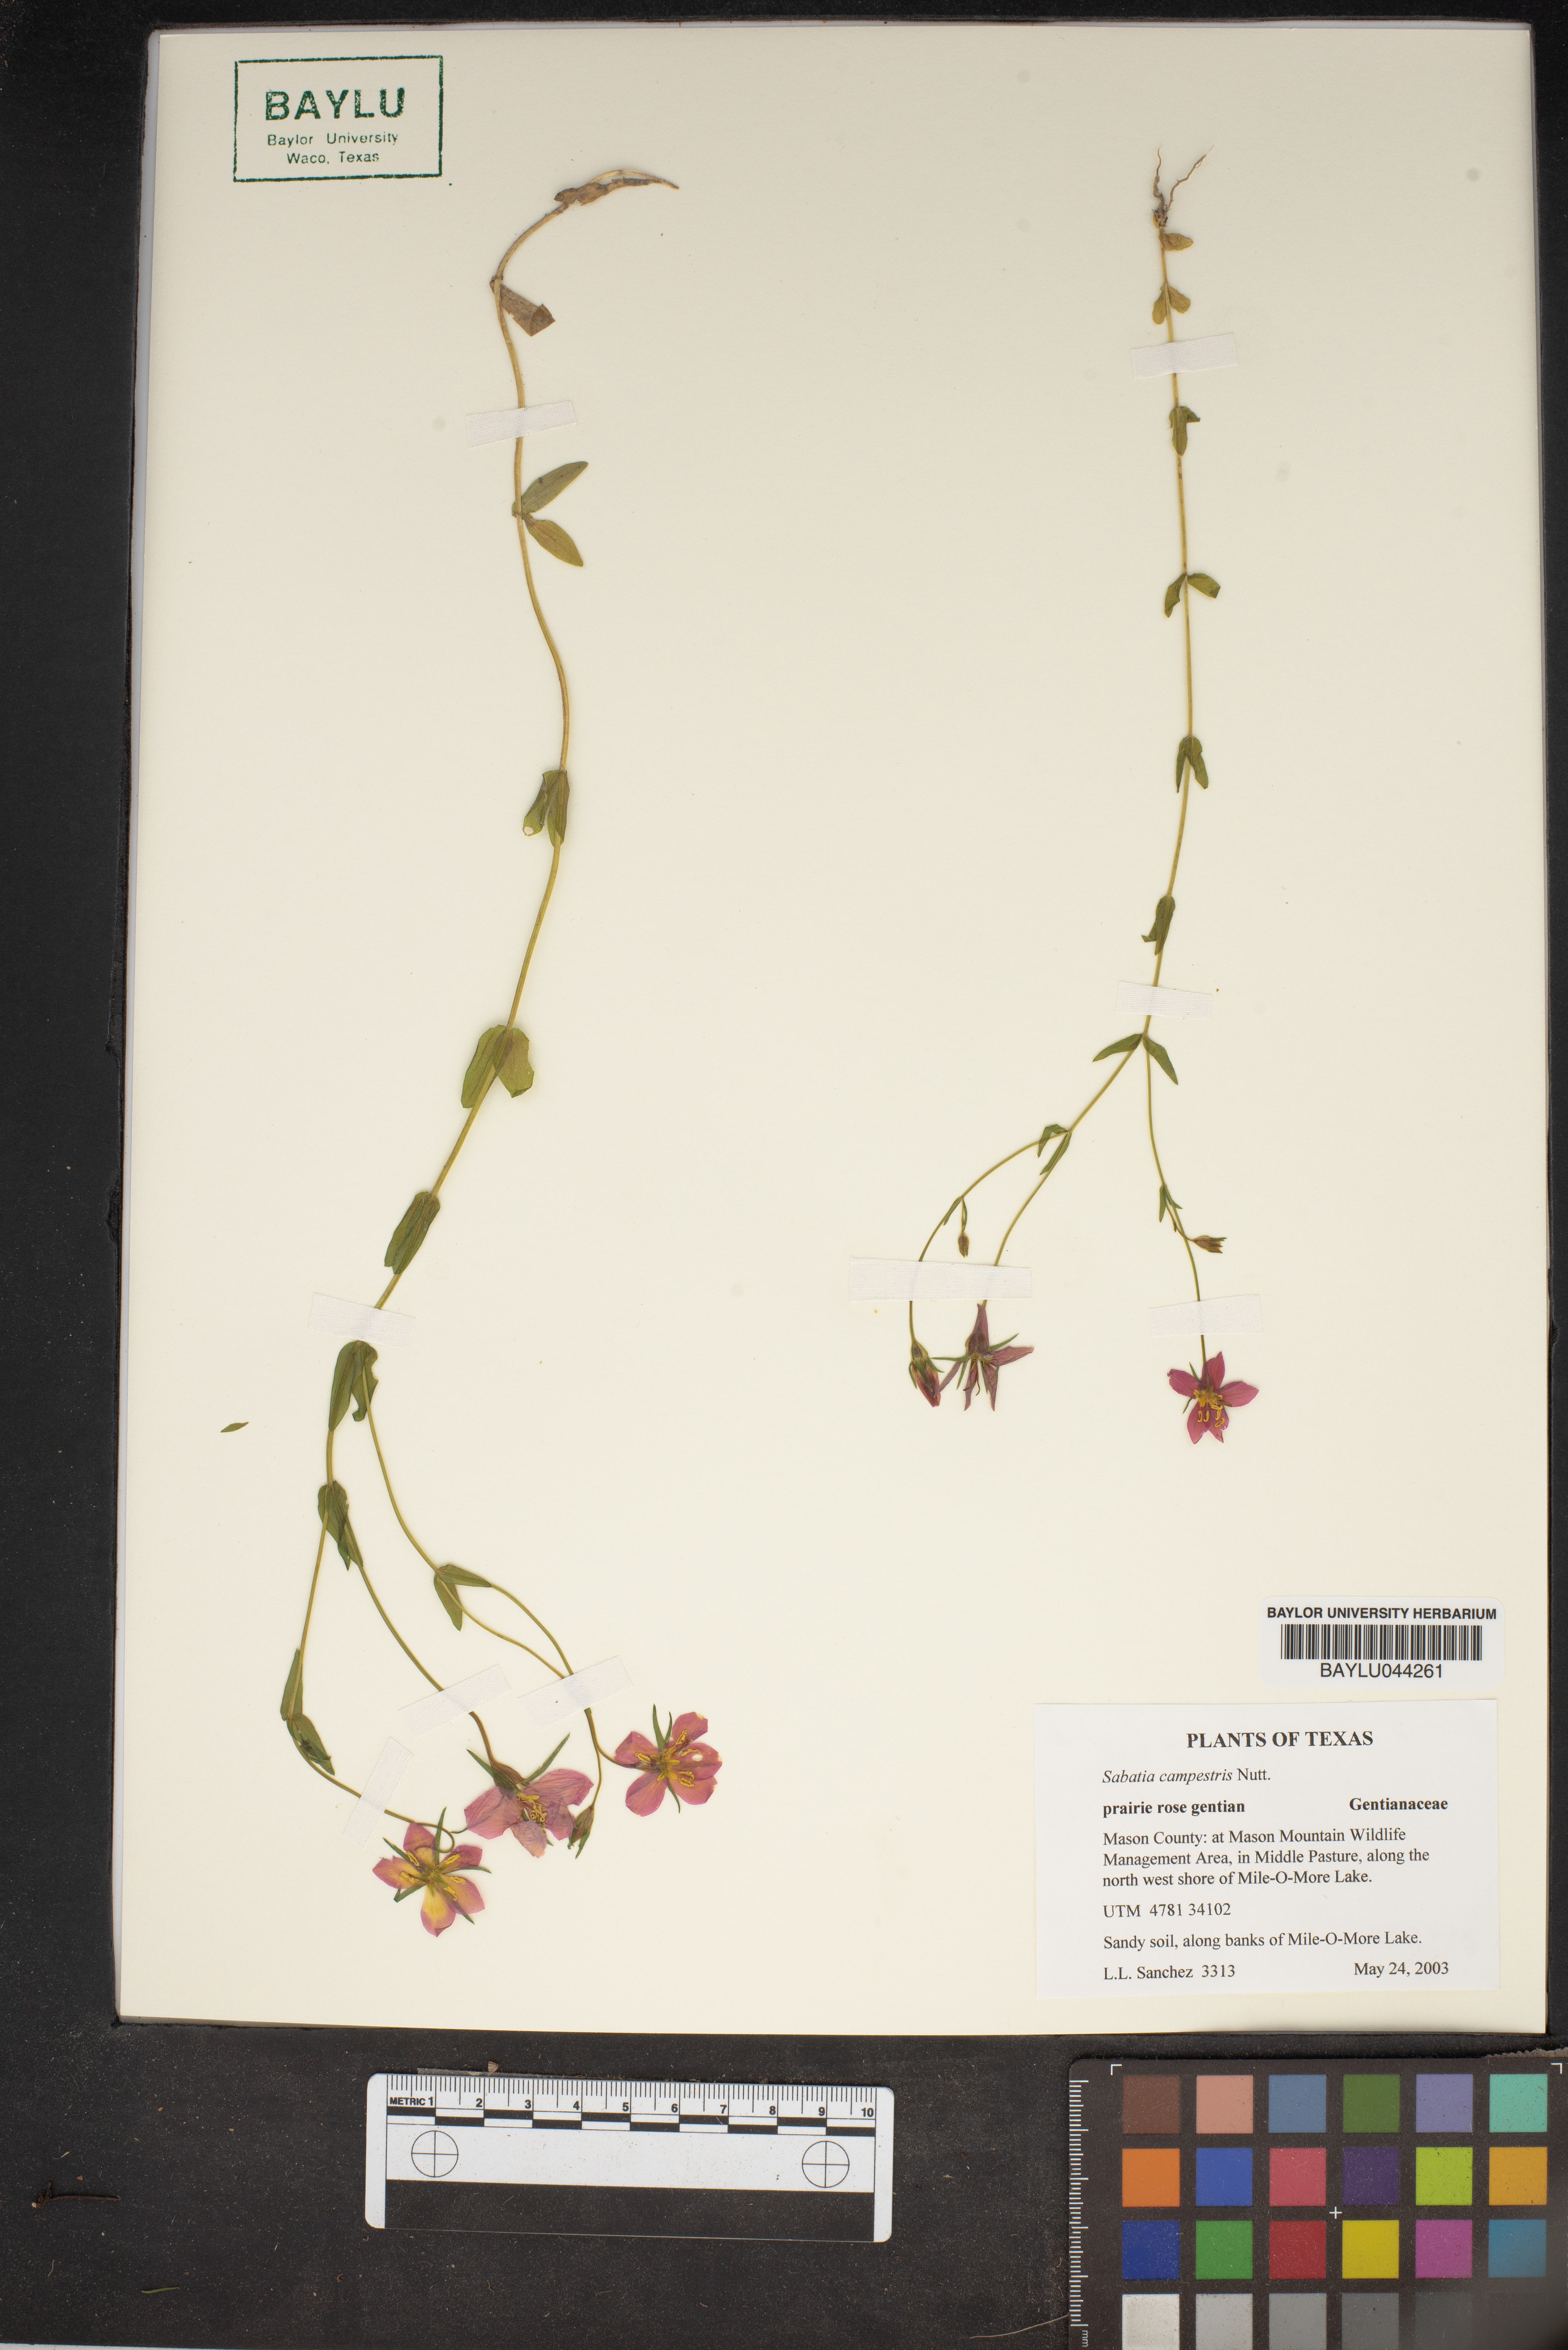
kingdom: Plantae
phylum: Tracheophyta
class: Magnoliopsida
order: Gentianales
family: Gentianaceae
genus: Sabatia
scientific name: Sabatia campestris
